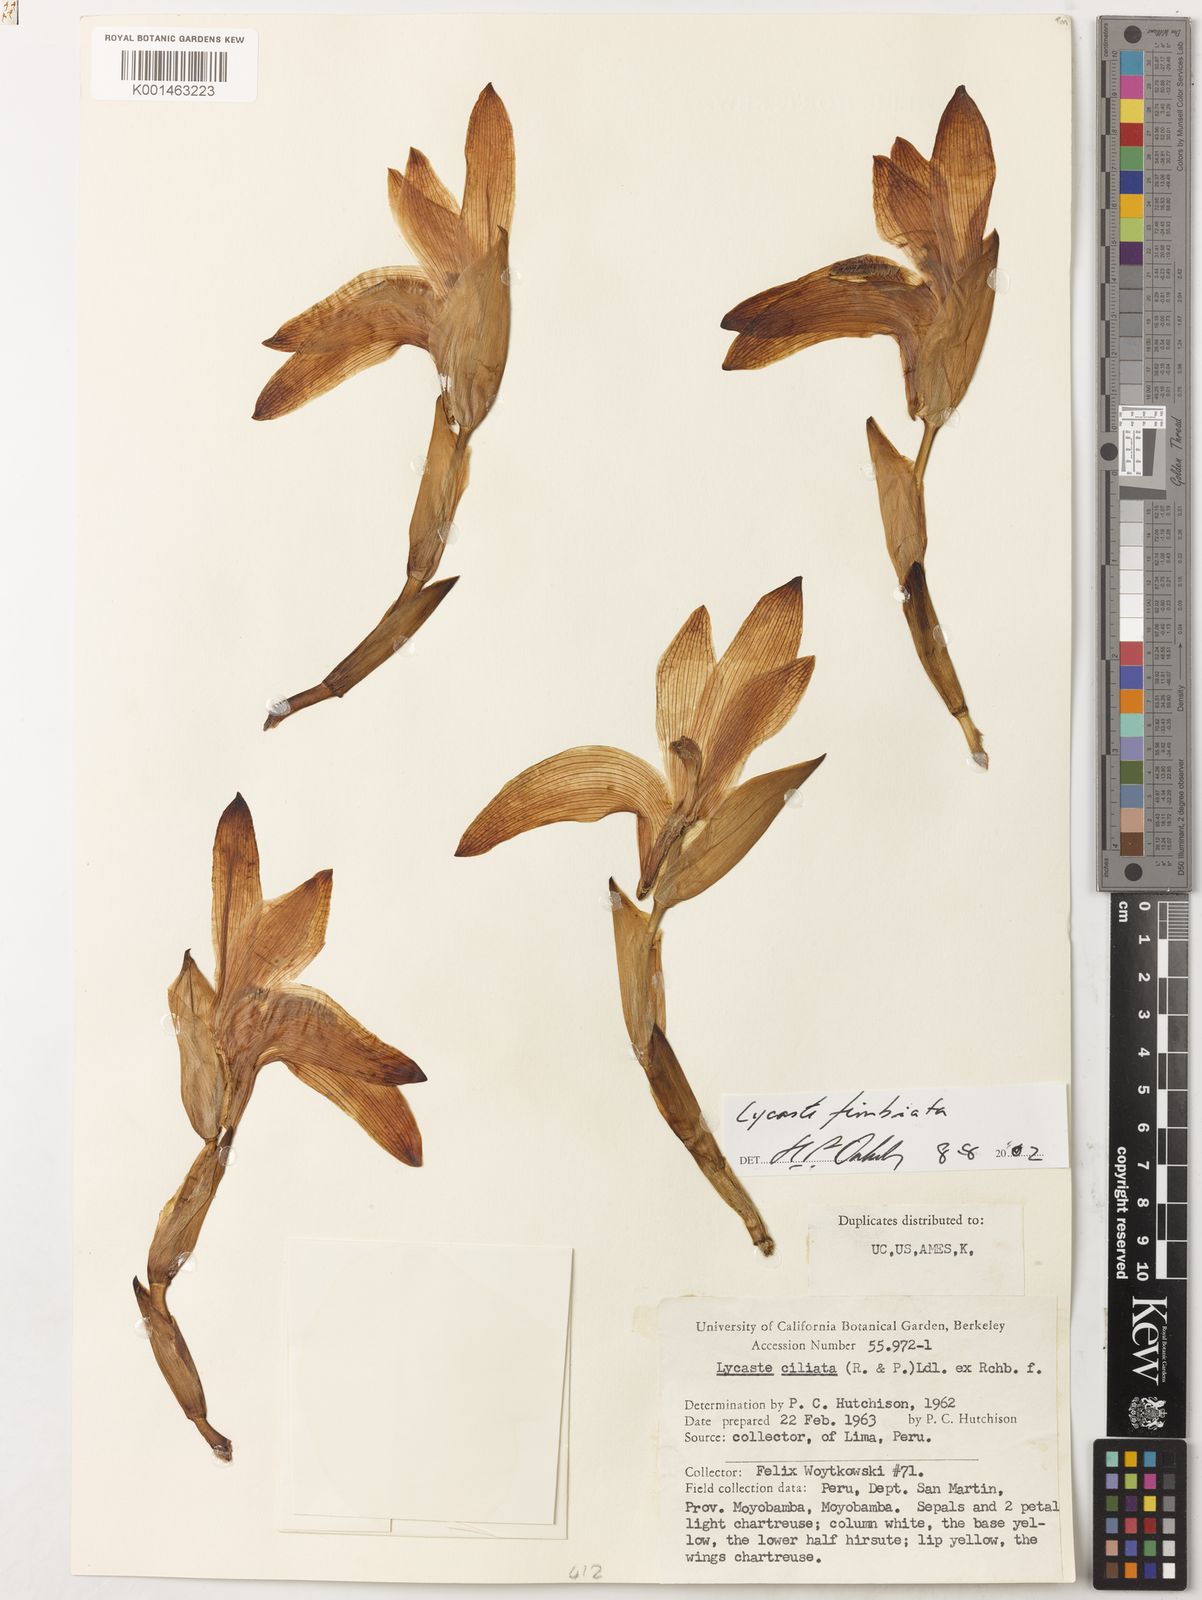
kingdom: Plantae
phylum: Tracheophyta
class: Liliopsida
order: Asparagales
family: Orchidaceae
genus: Ida
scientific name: Ida ciliata
